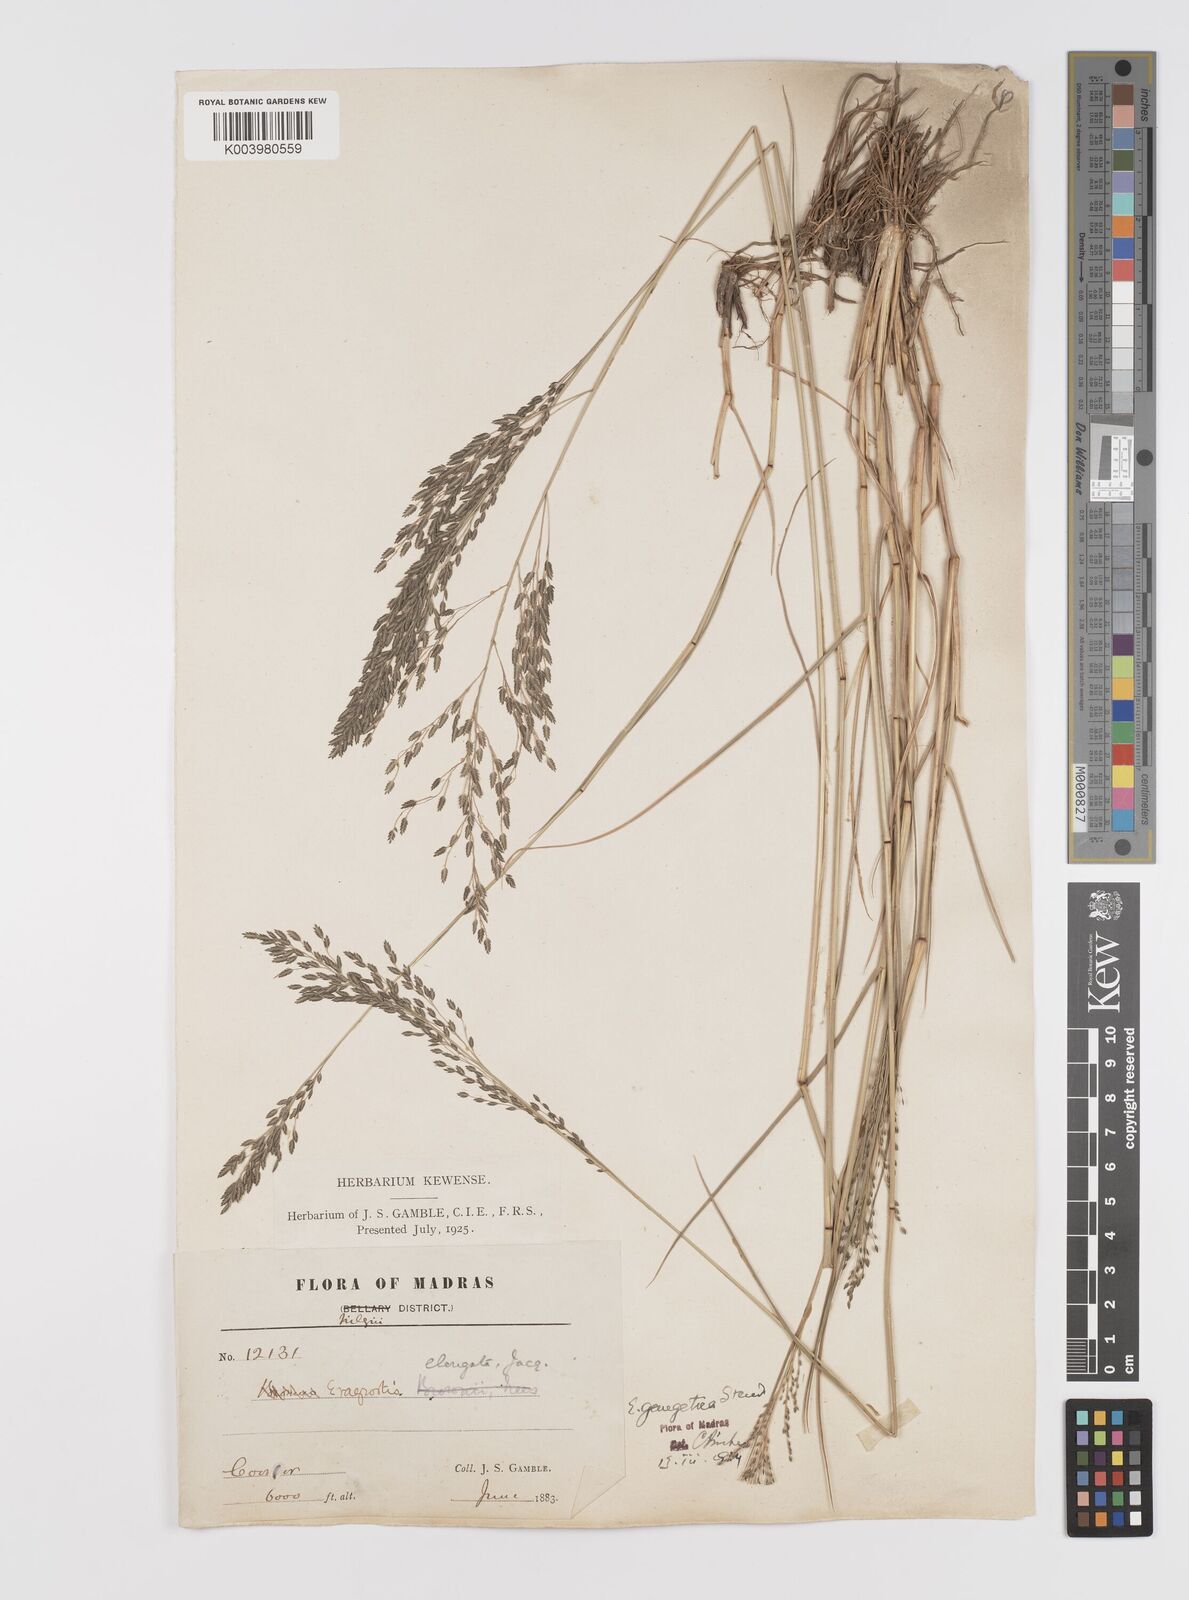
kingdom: Plantae
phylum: Tracheophyta
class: Liliopsida
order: Poales
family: Poaceae
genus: Eragrostis
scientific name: Eragrostis
